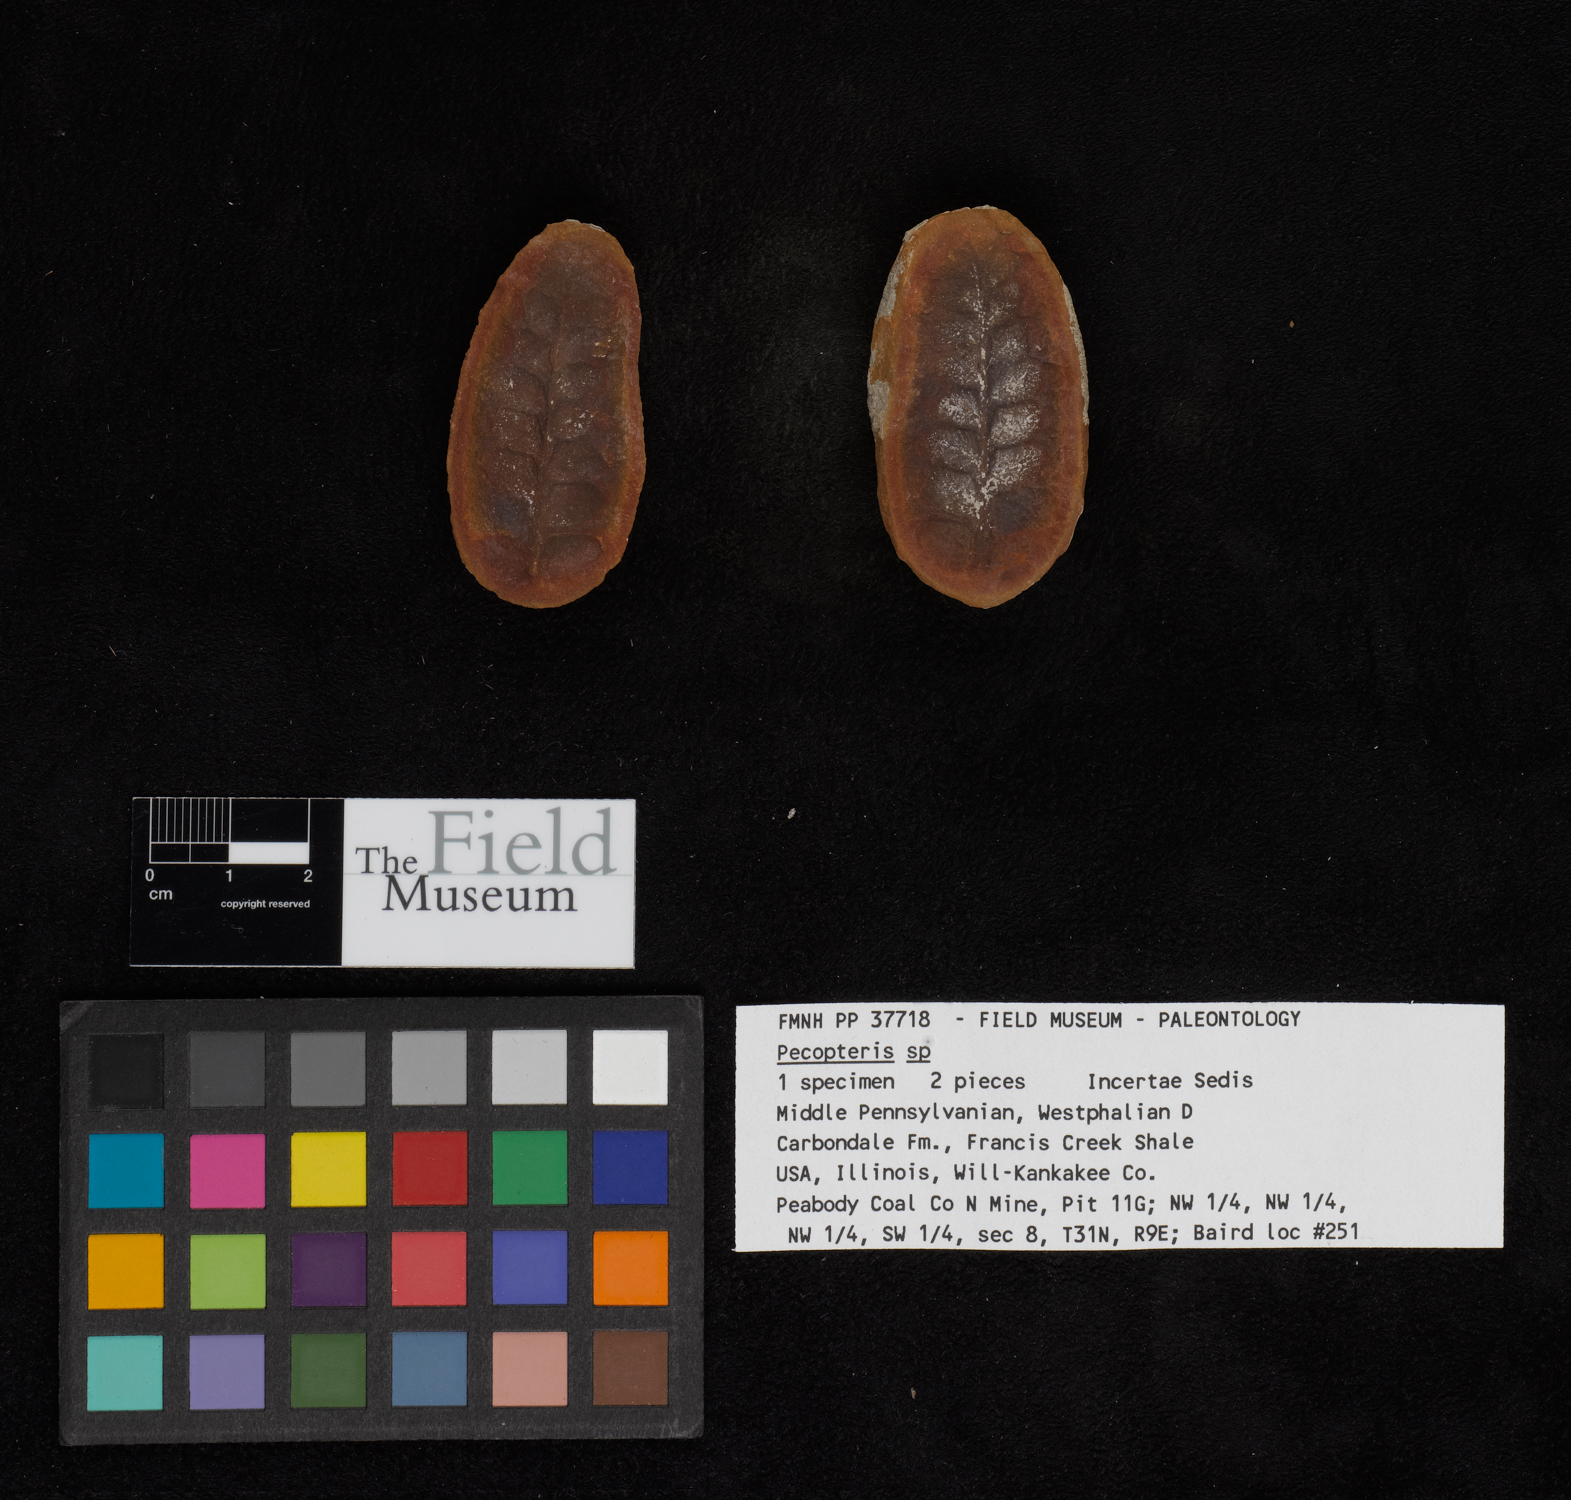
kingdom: Plantae
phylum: Tracheophyta
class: Polypodiopsida
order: Marattiales
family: Asterothecaceae
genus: Pecopteris
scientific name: Pecopteris
